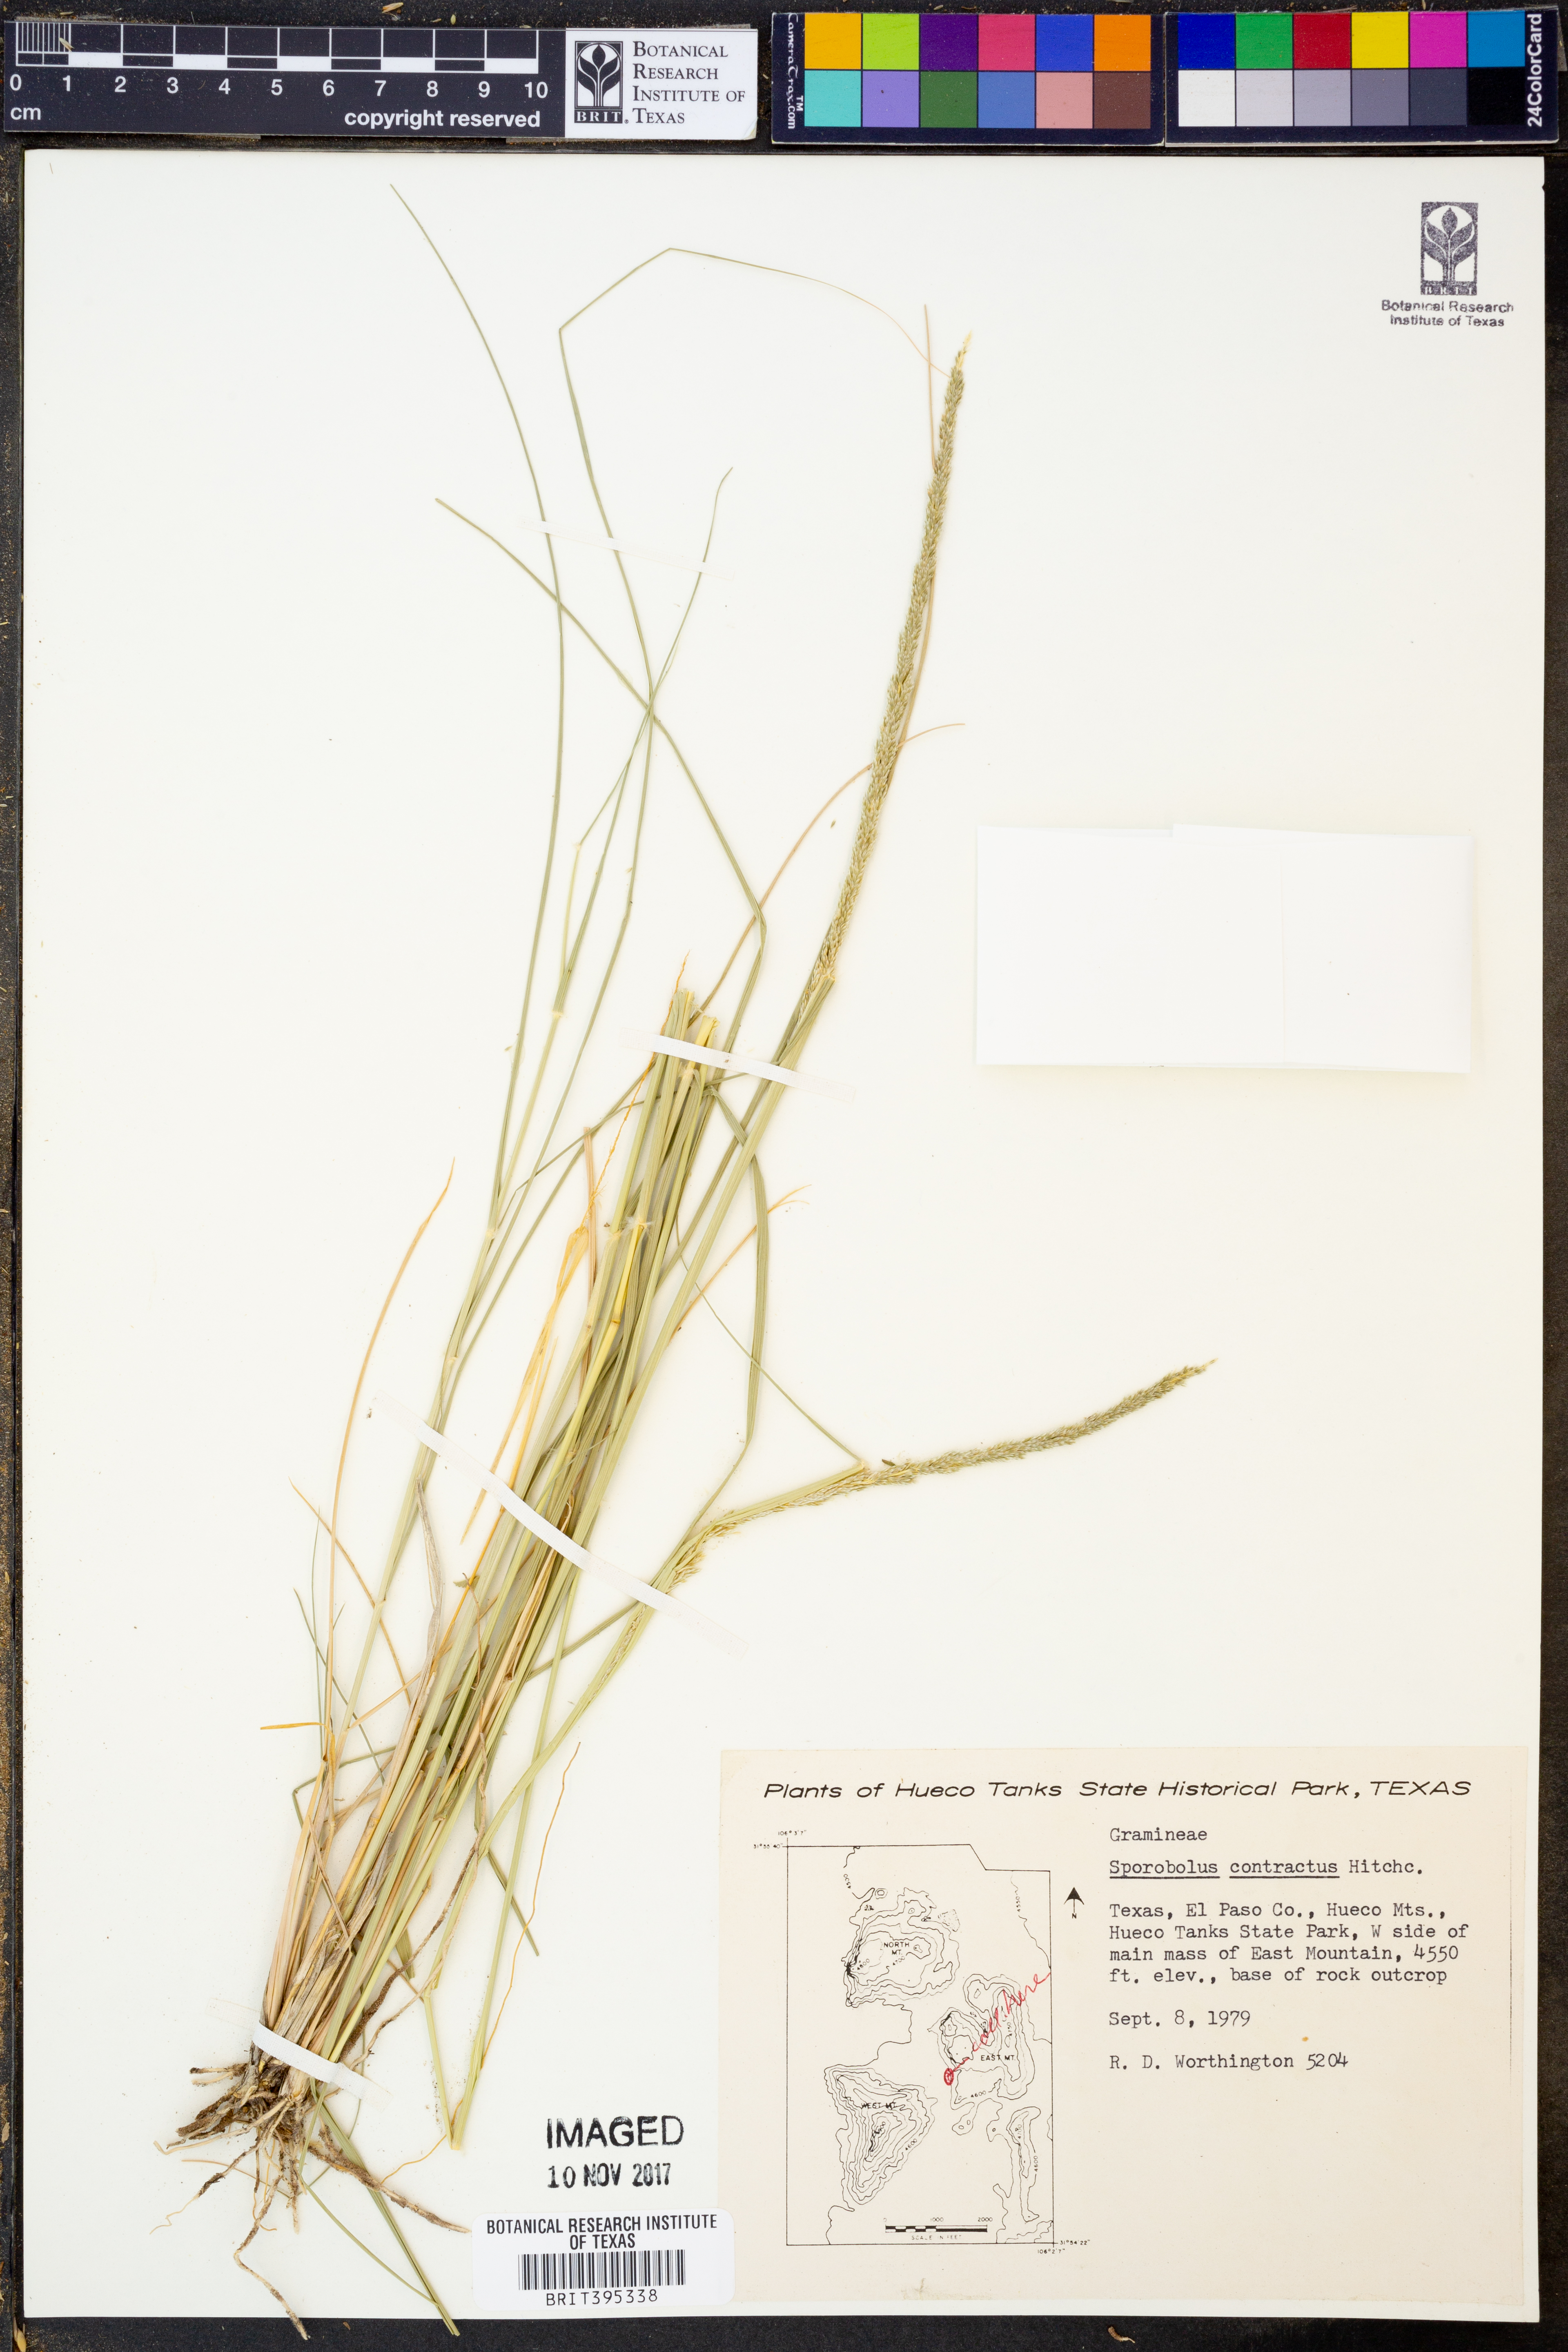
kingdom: Plantae
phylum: Tracheophyta
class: Liliopsida
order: Poales
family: Poaceae
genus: Sporobolus
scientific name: Sporobolus contractus
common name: Spike dropseed
